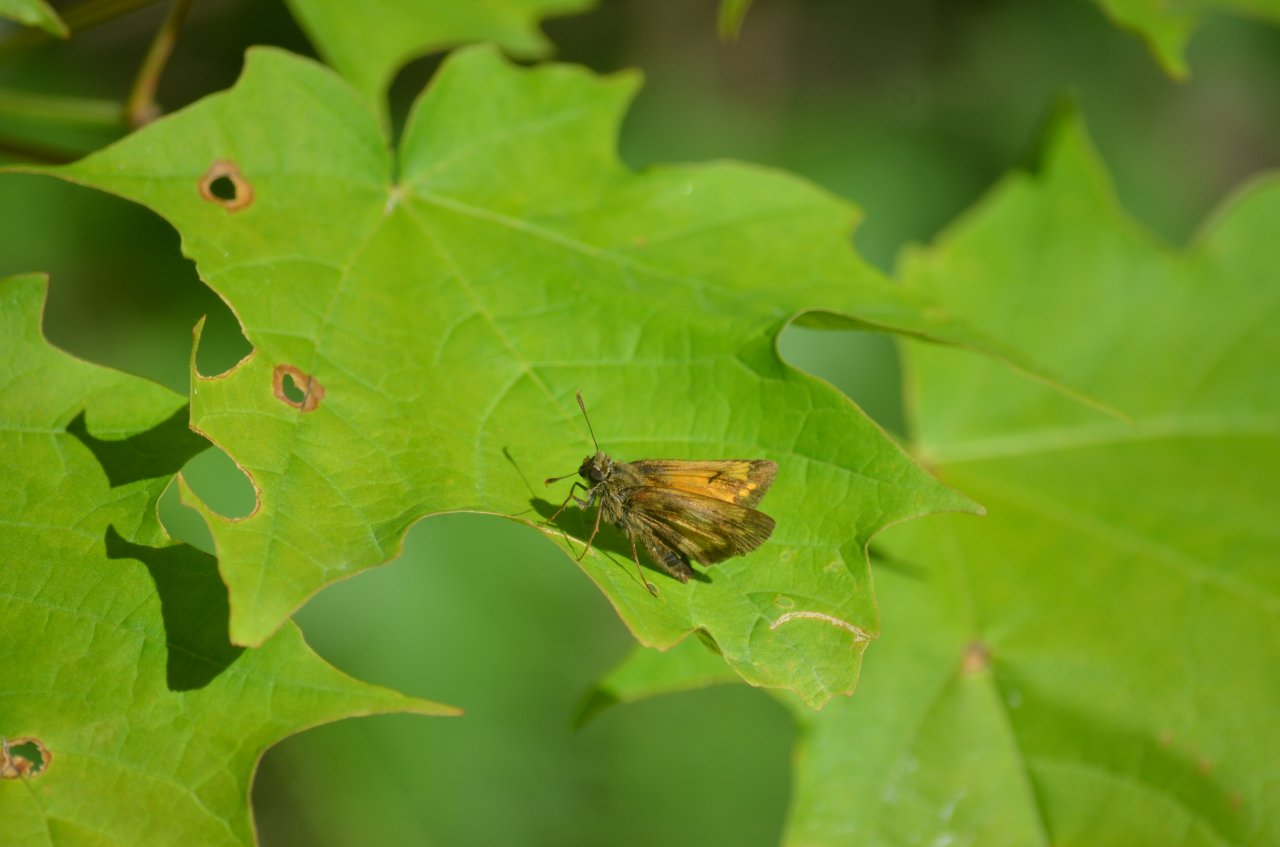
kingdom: Animalia
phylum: Arthropoda
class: Insecta
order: Lepidoptera
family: Hesperiidae
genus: Lon
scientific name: Lon hobomok
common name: Hobomok Skipper
